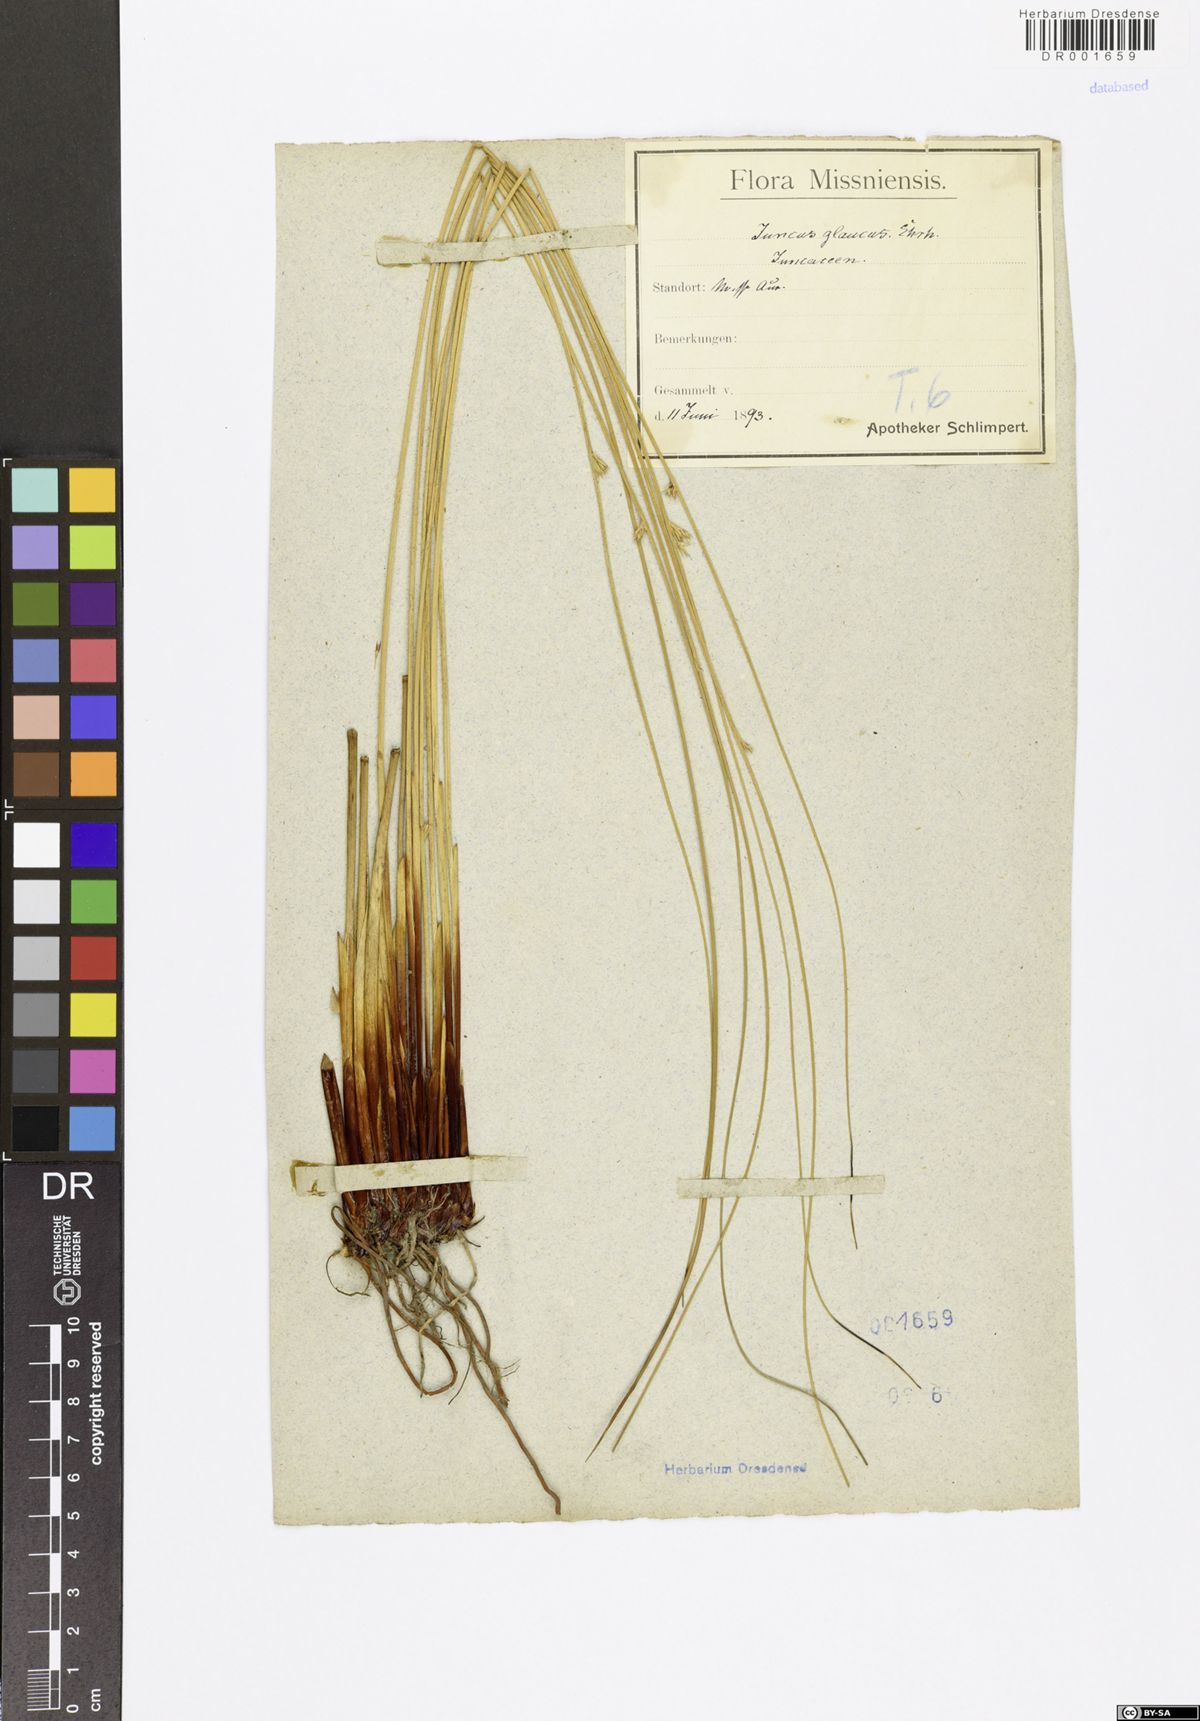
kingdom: Plantae
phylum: Tracheophyta
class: Liliopsida
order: Poales
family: Juncaceae
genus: Juncus
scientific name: Juncus inflexus
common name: Hard rush
